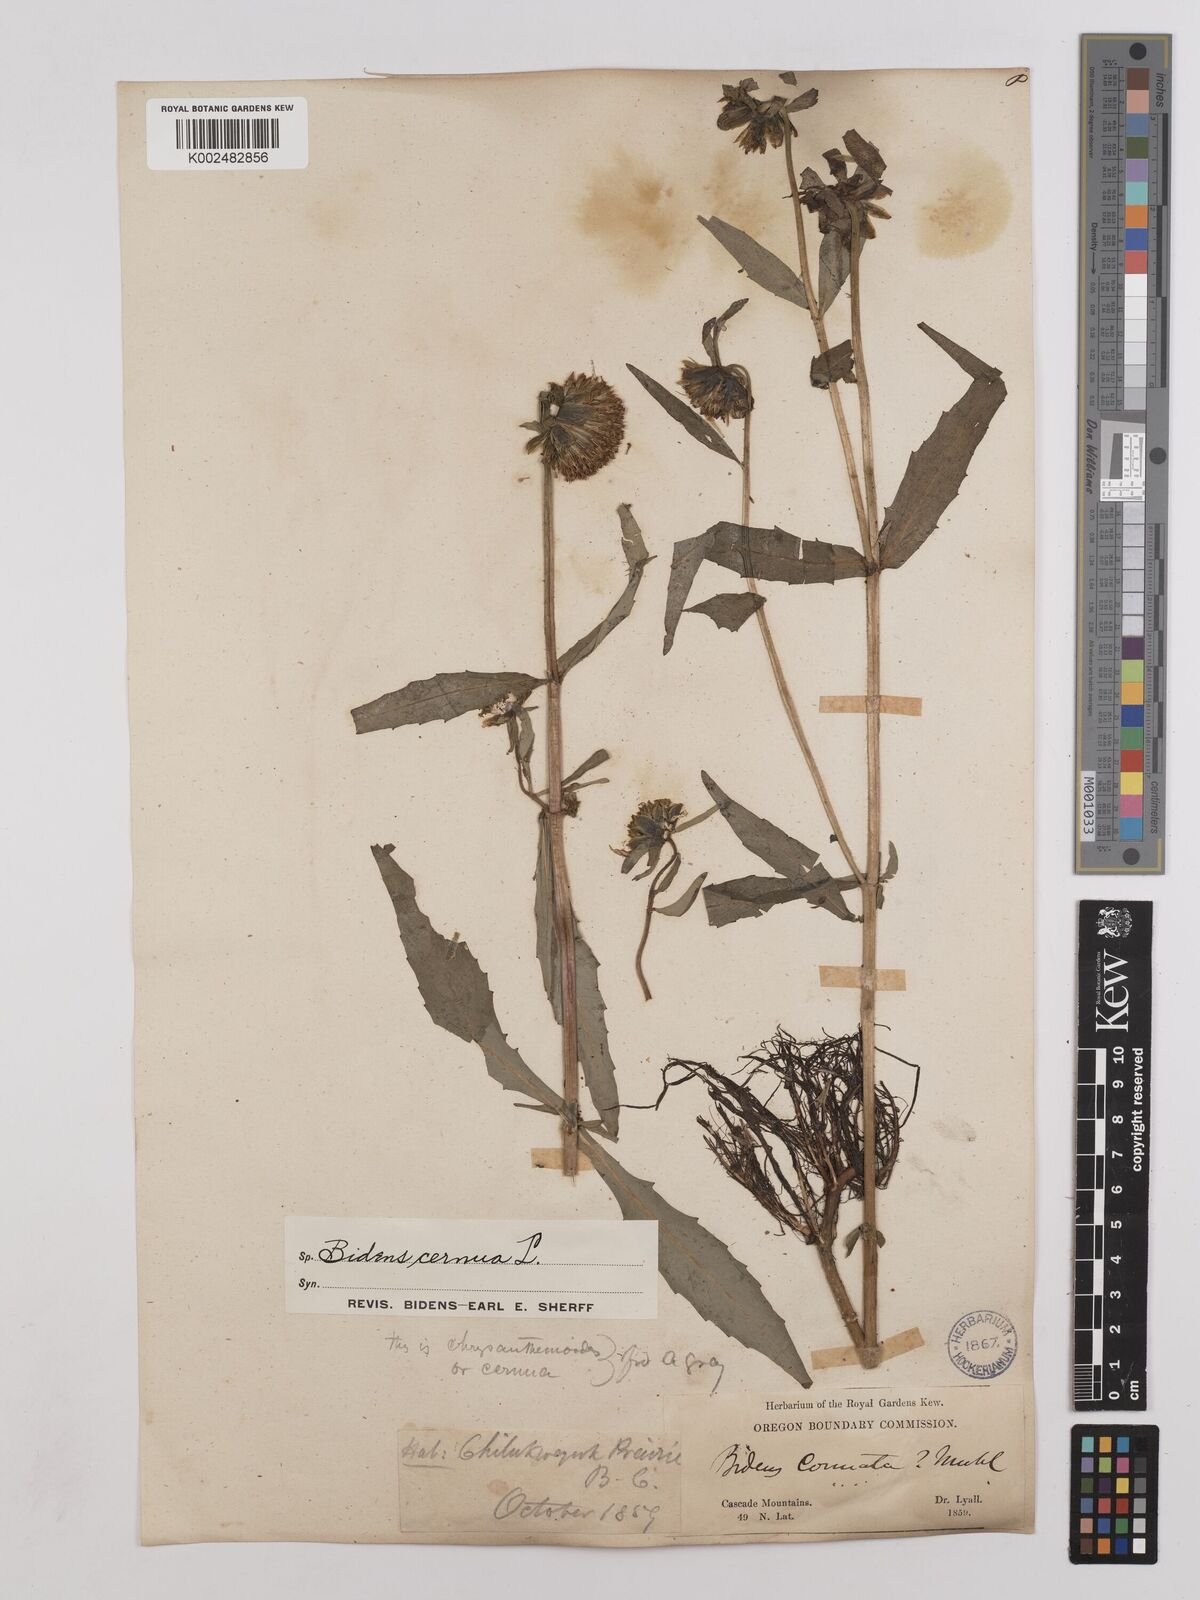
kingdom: Plantae
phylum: Tracheophyta
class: Magnoliopsida
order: Asterales
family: Asteraceae
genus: Bidens
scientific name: Bidens
